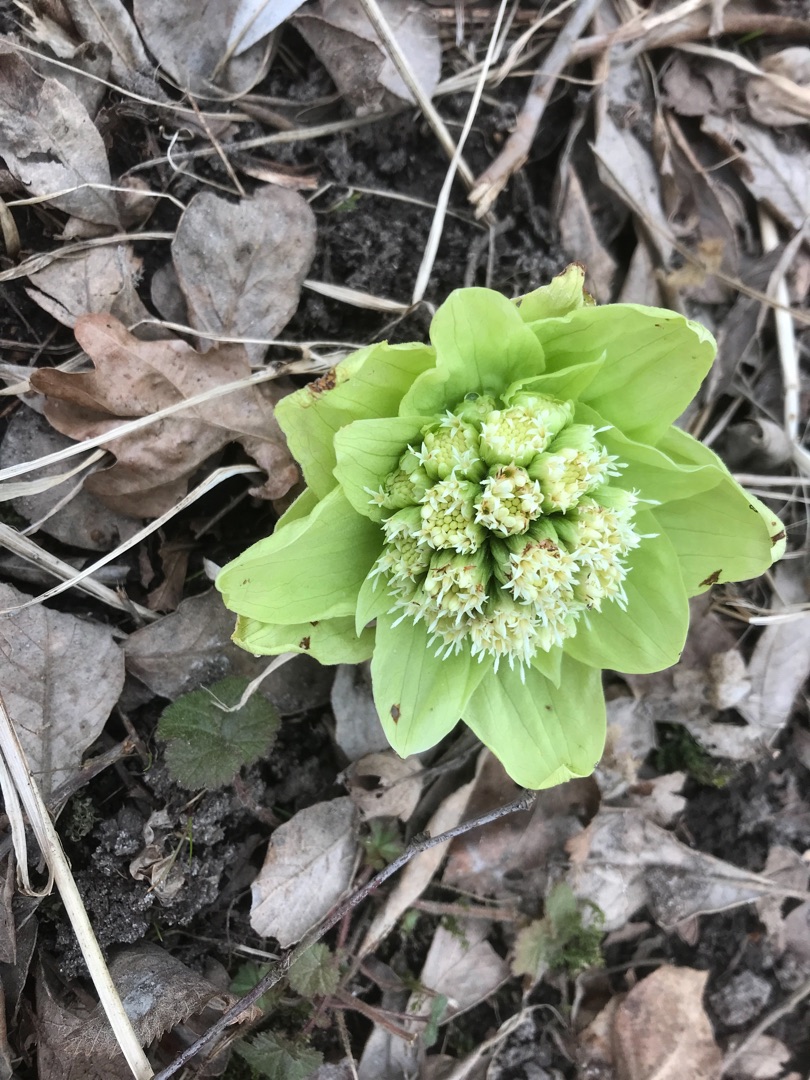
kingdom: Plantae
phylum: Tracheophyta
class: Magnoliopsida
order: Asterales
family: Asteraceae
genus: Petasites
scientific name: Petasites japonicus
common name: Japansk hestehov
